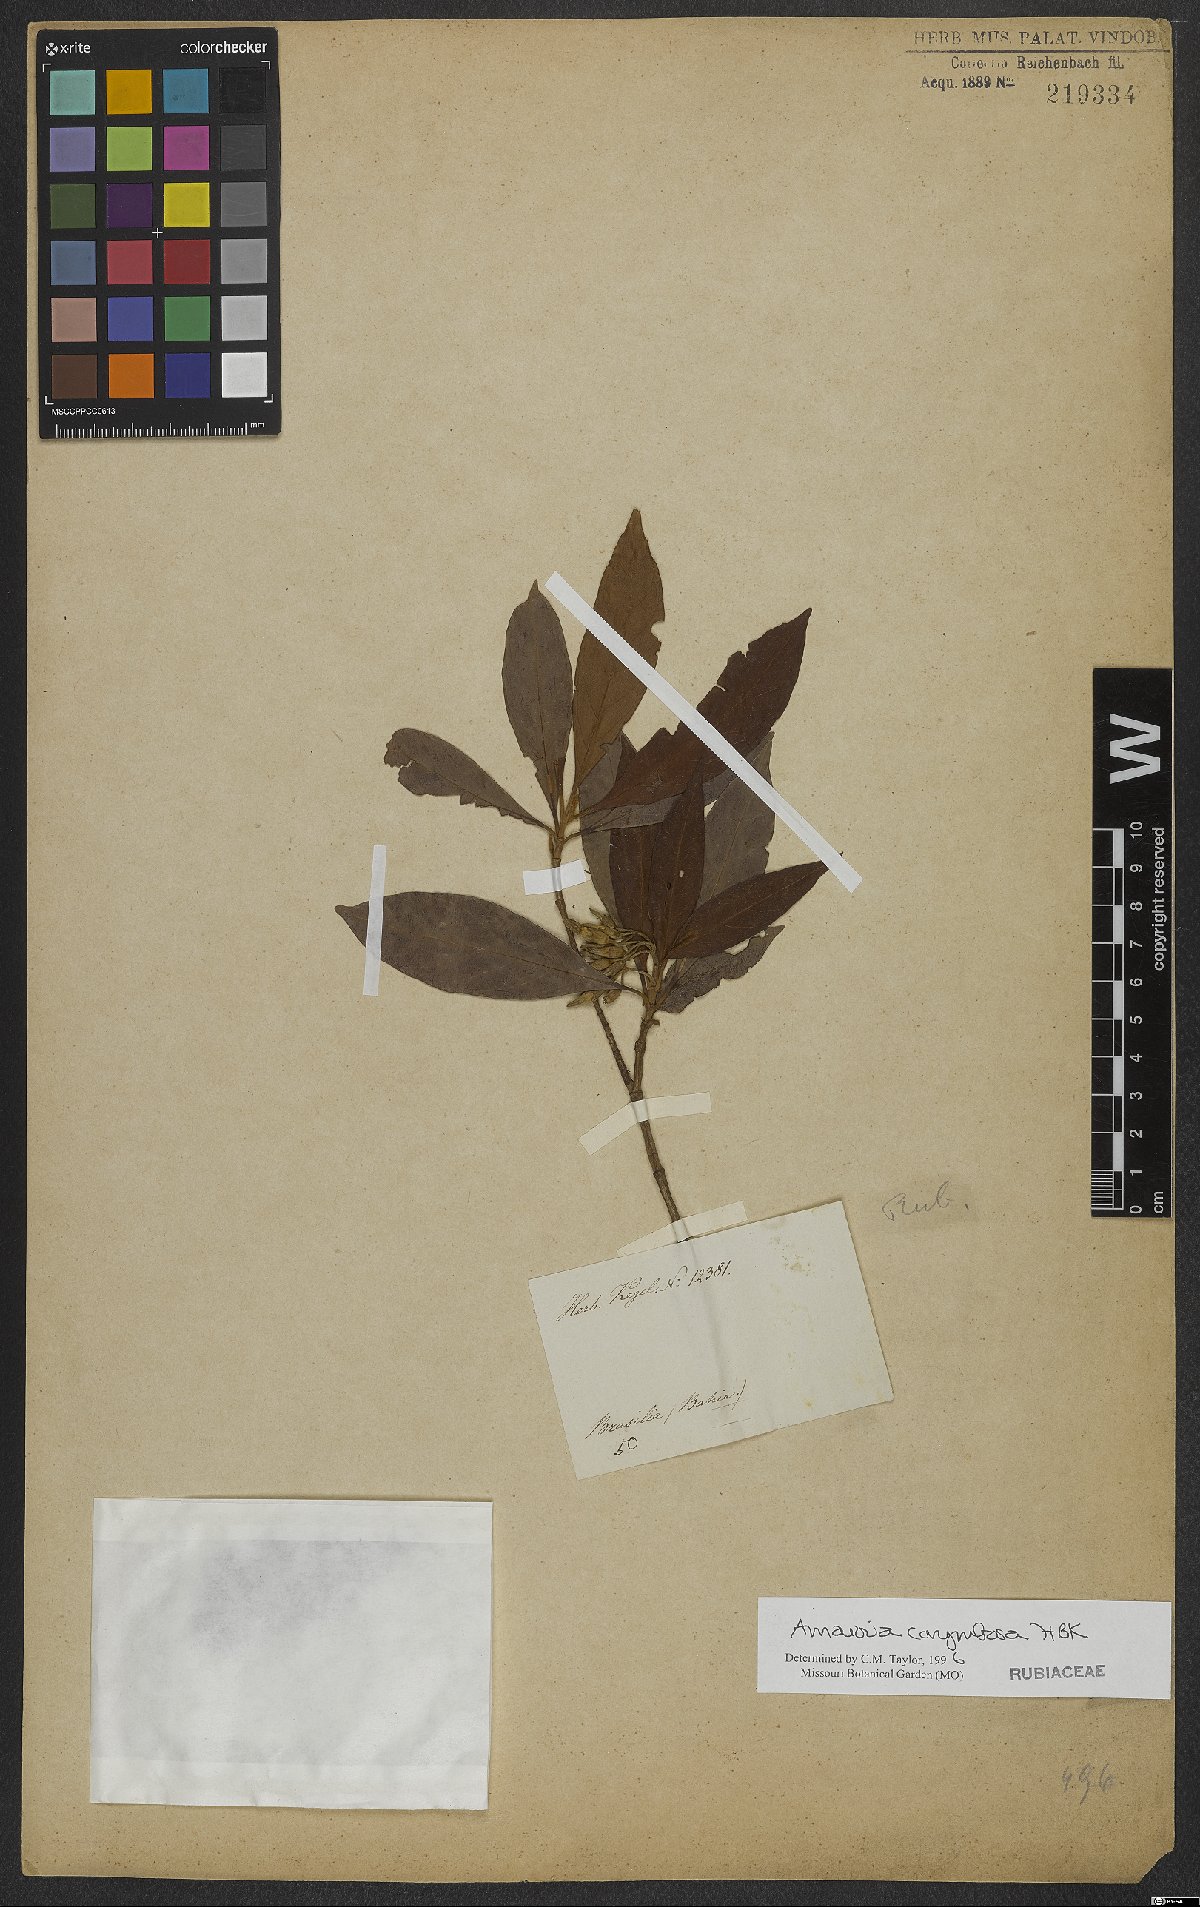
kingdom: Plantae
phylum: Tracheophyta
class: Magnoliopsida
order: Gentianales
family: Rubiaceae
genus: Amaioua
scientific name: Amaioua glomerulata
